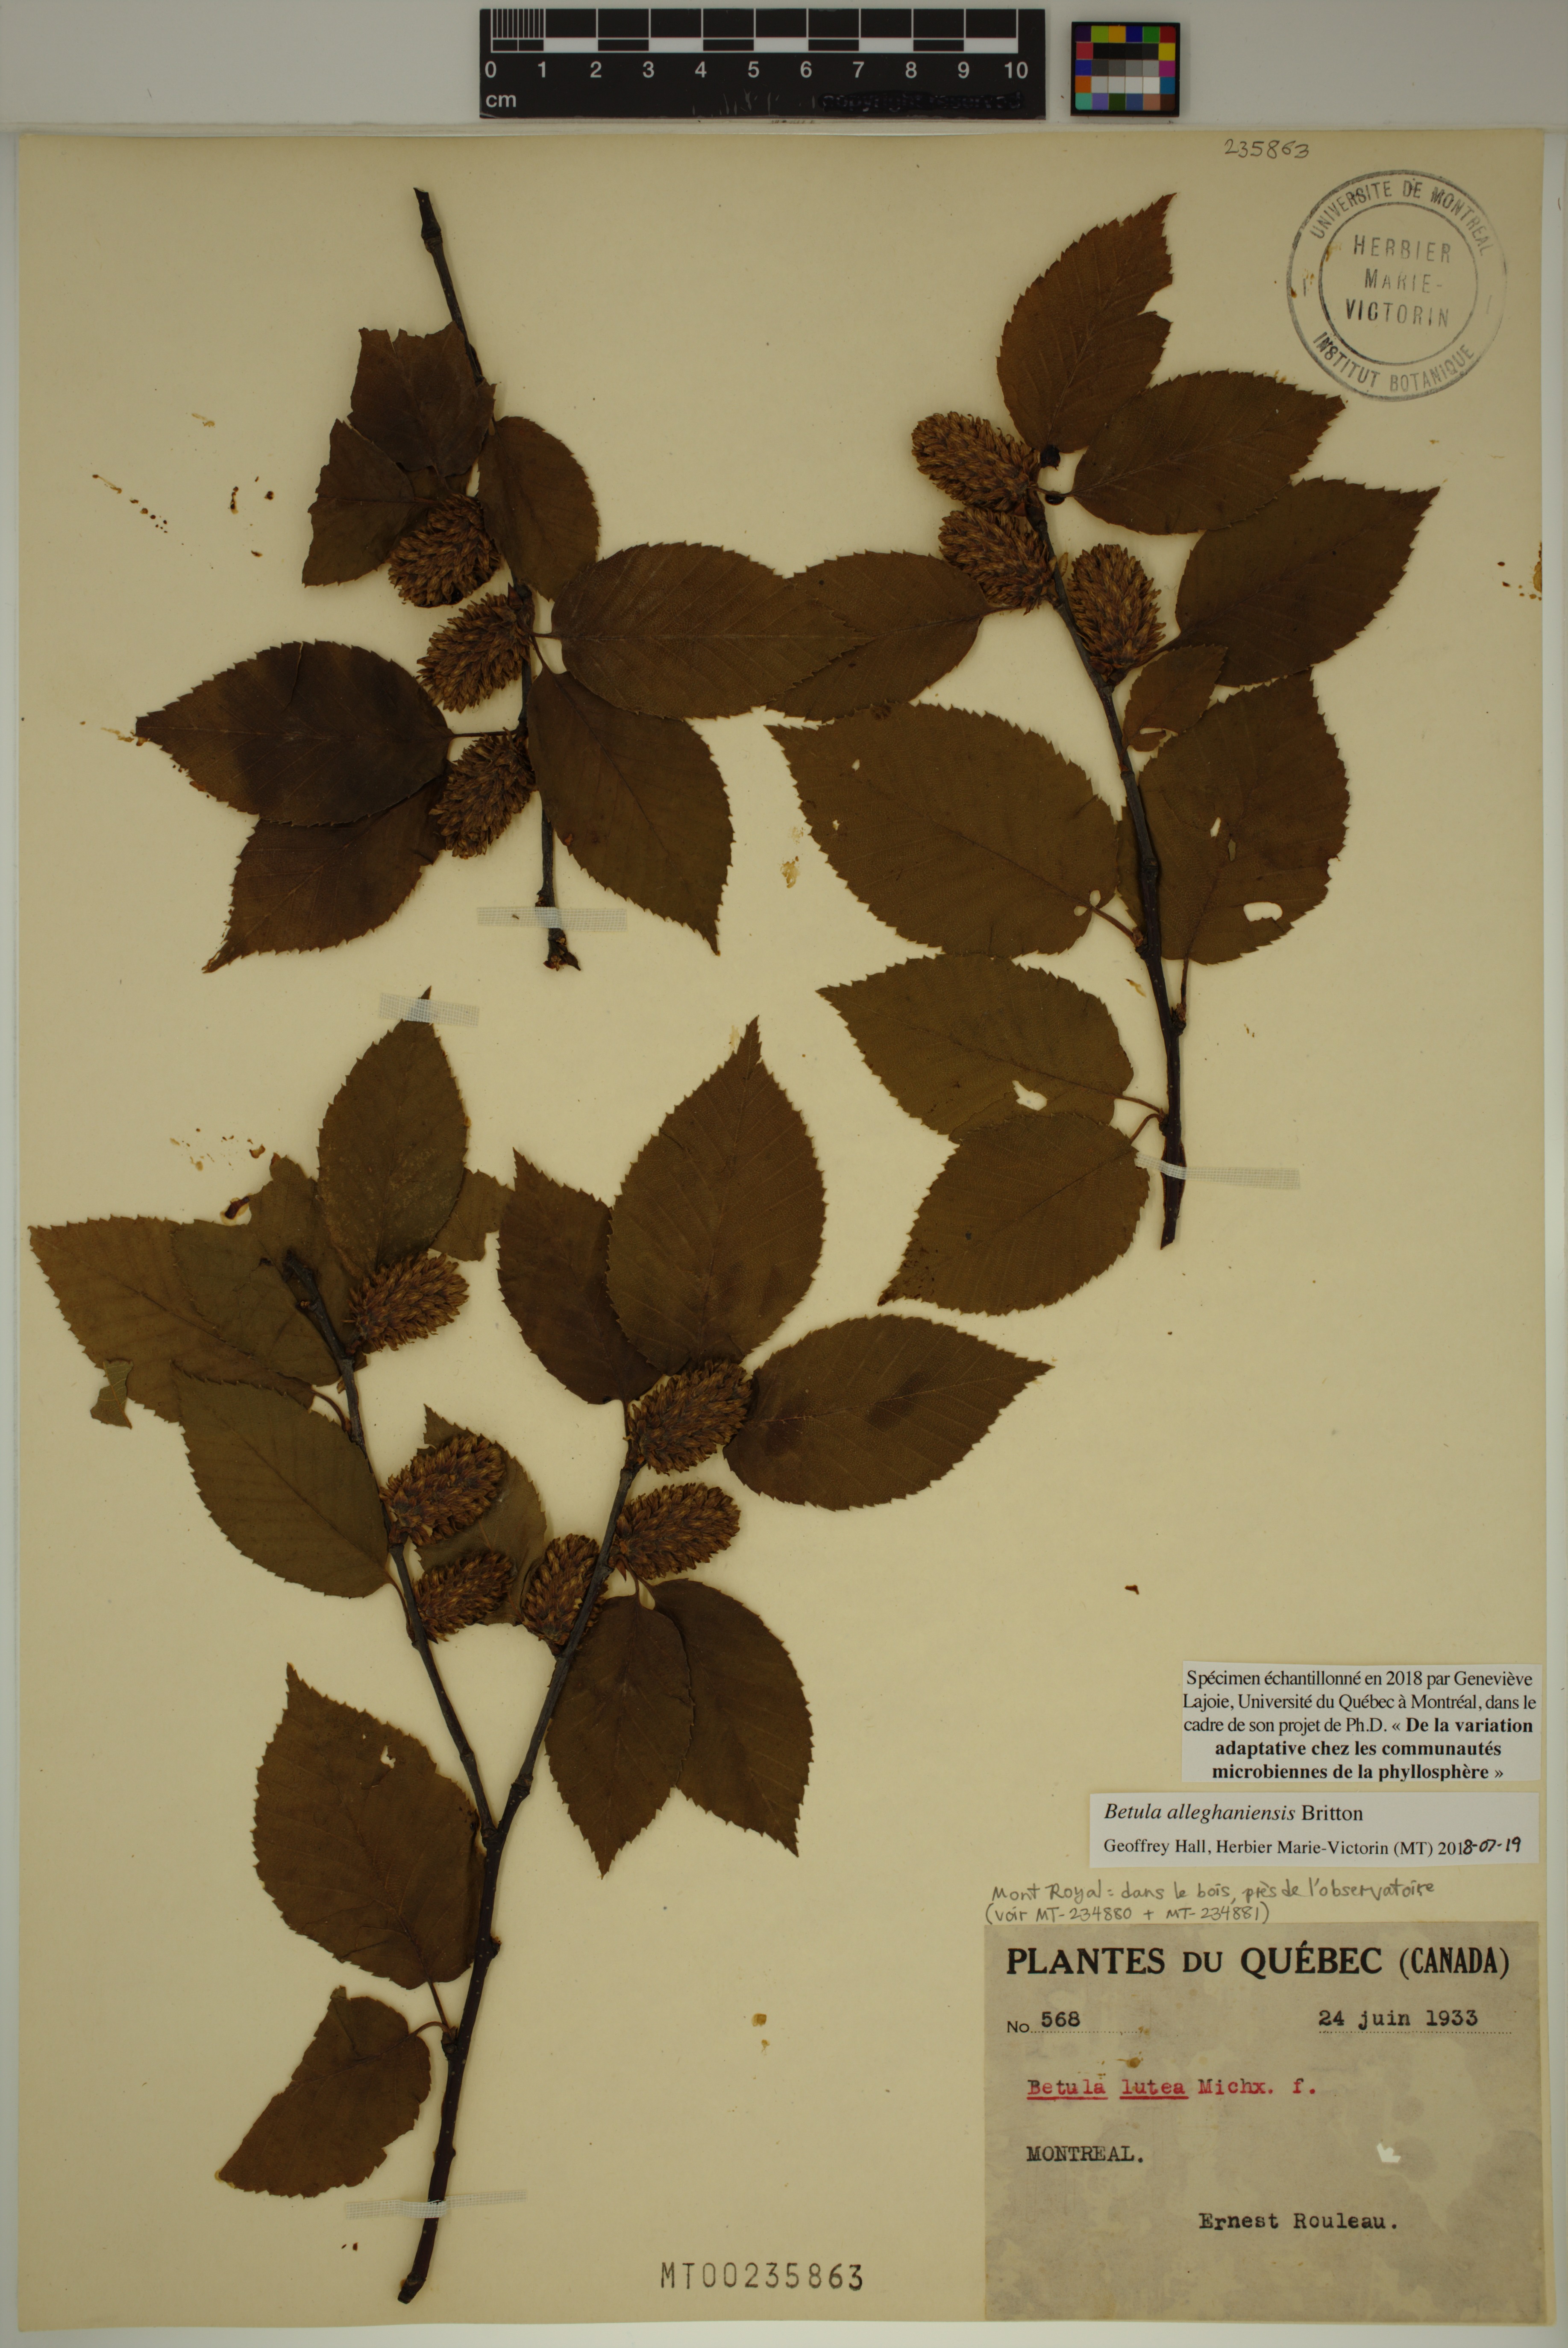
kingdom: Plantae
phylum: Tracheophyta
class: Magnoliopsida
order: Fagales
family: Betulaceae
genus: Betula
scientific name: Betula alleghaniensis
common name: Yellow birch
